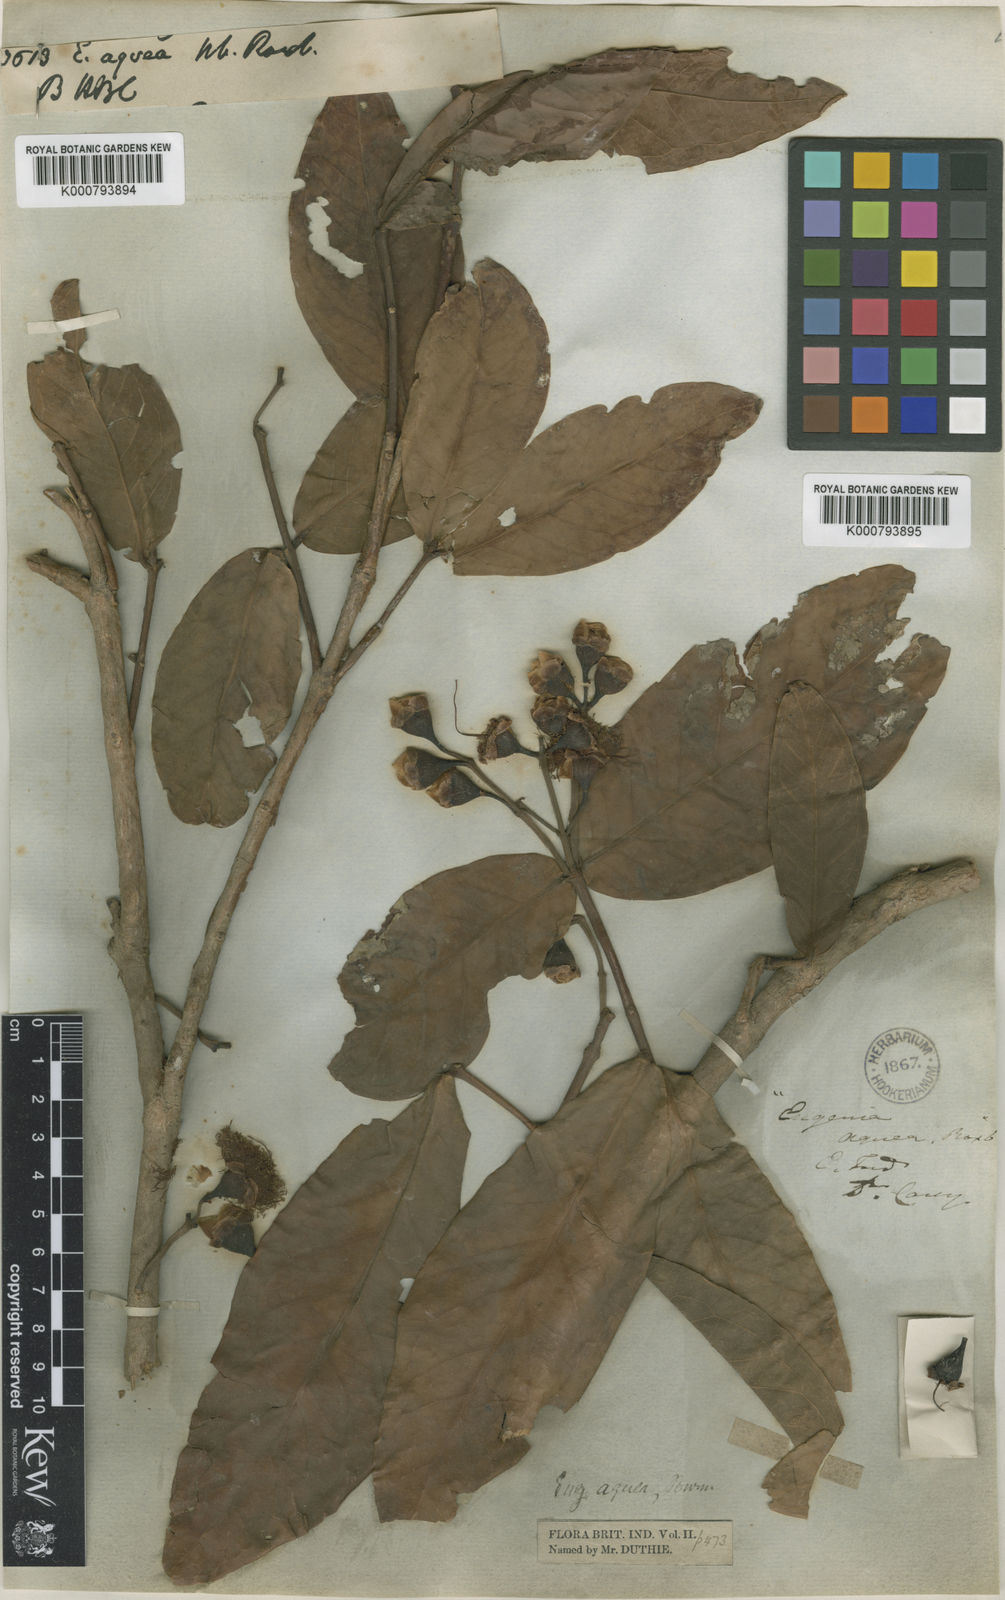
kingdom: Plantae
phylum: Tracheophyta
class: Magnoliopsida
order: Myrtales
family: Myrtaceae
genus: Syzygium
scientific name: Syzygium aqueum
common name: Water-apple
